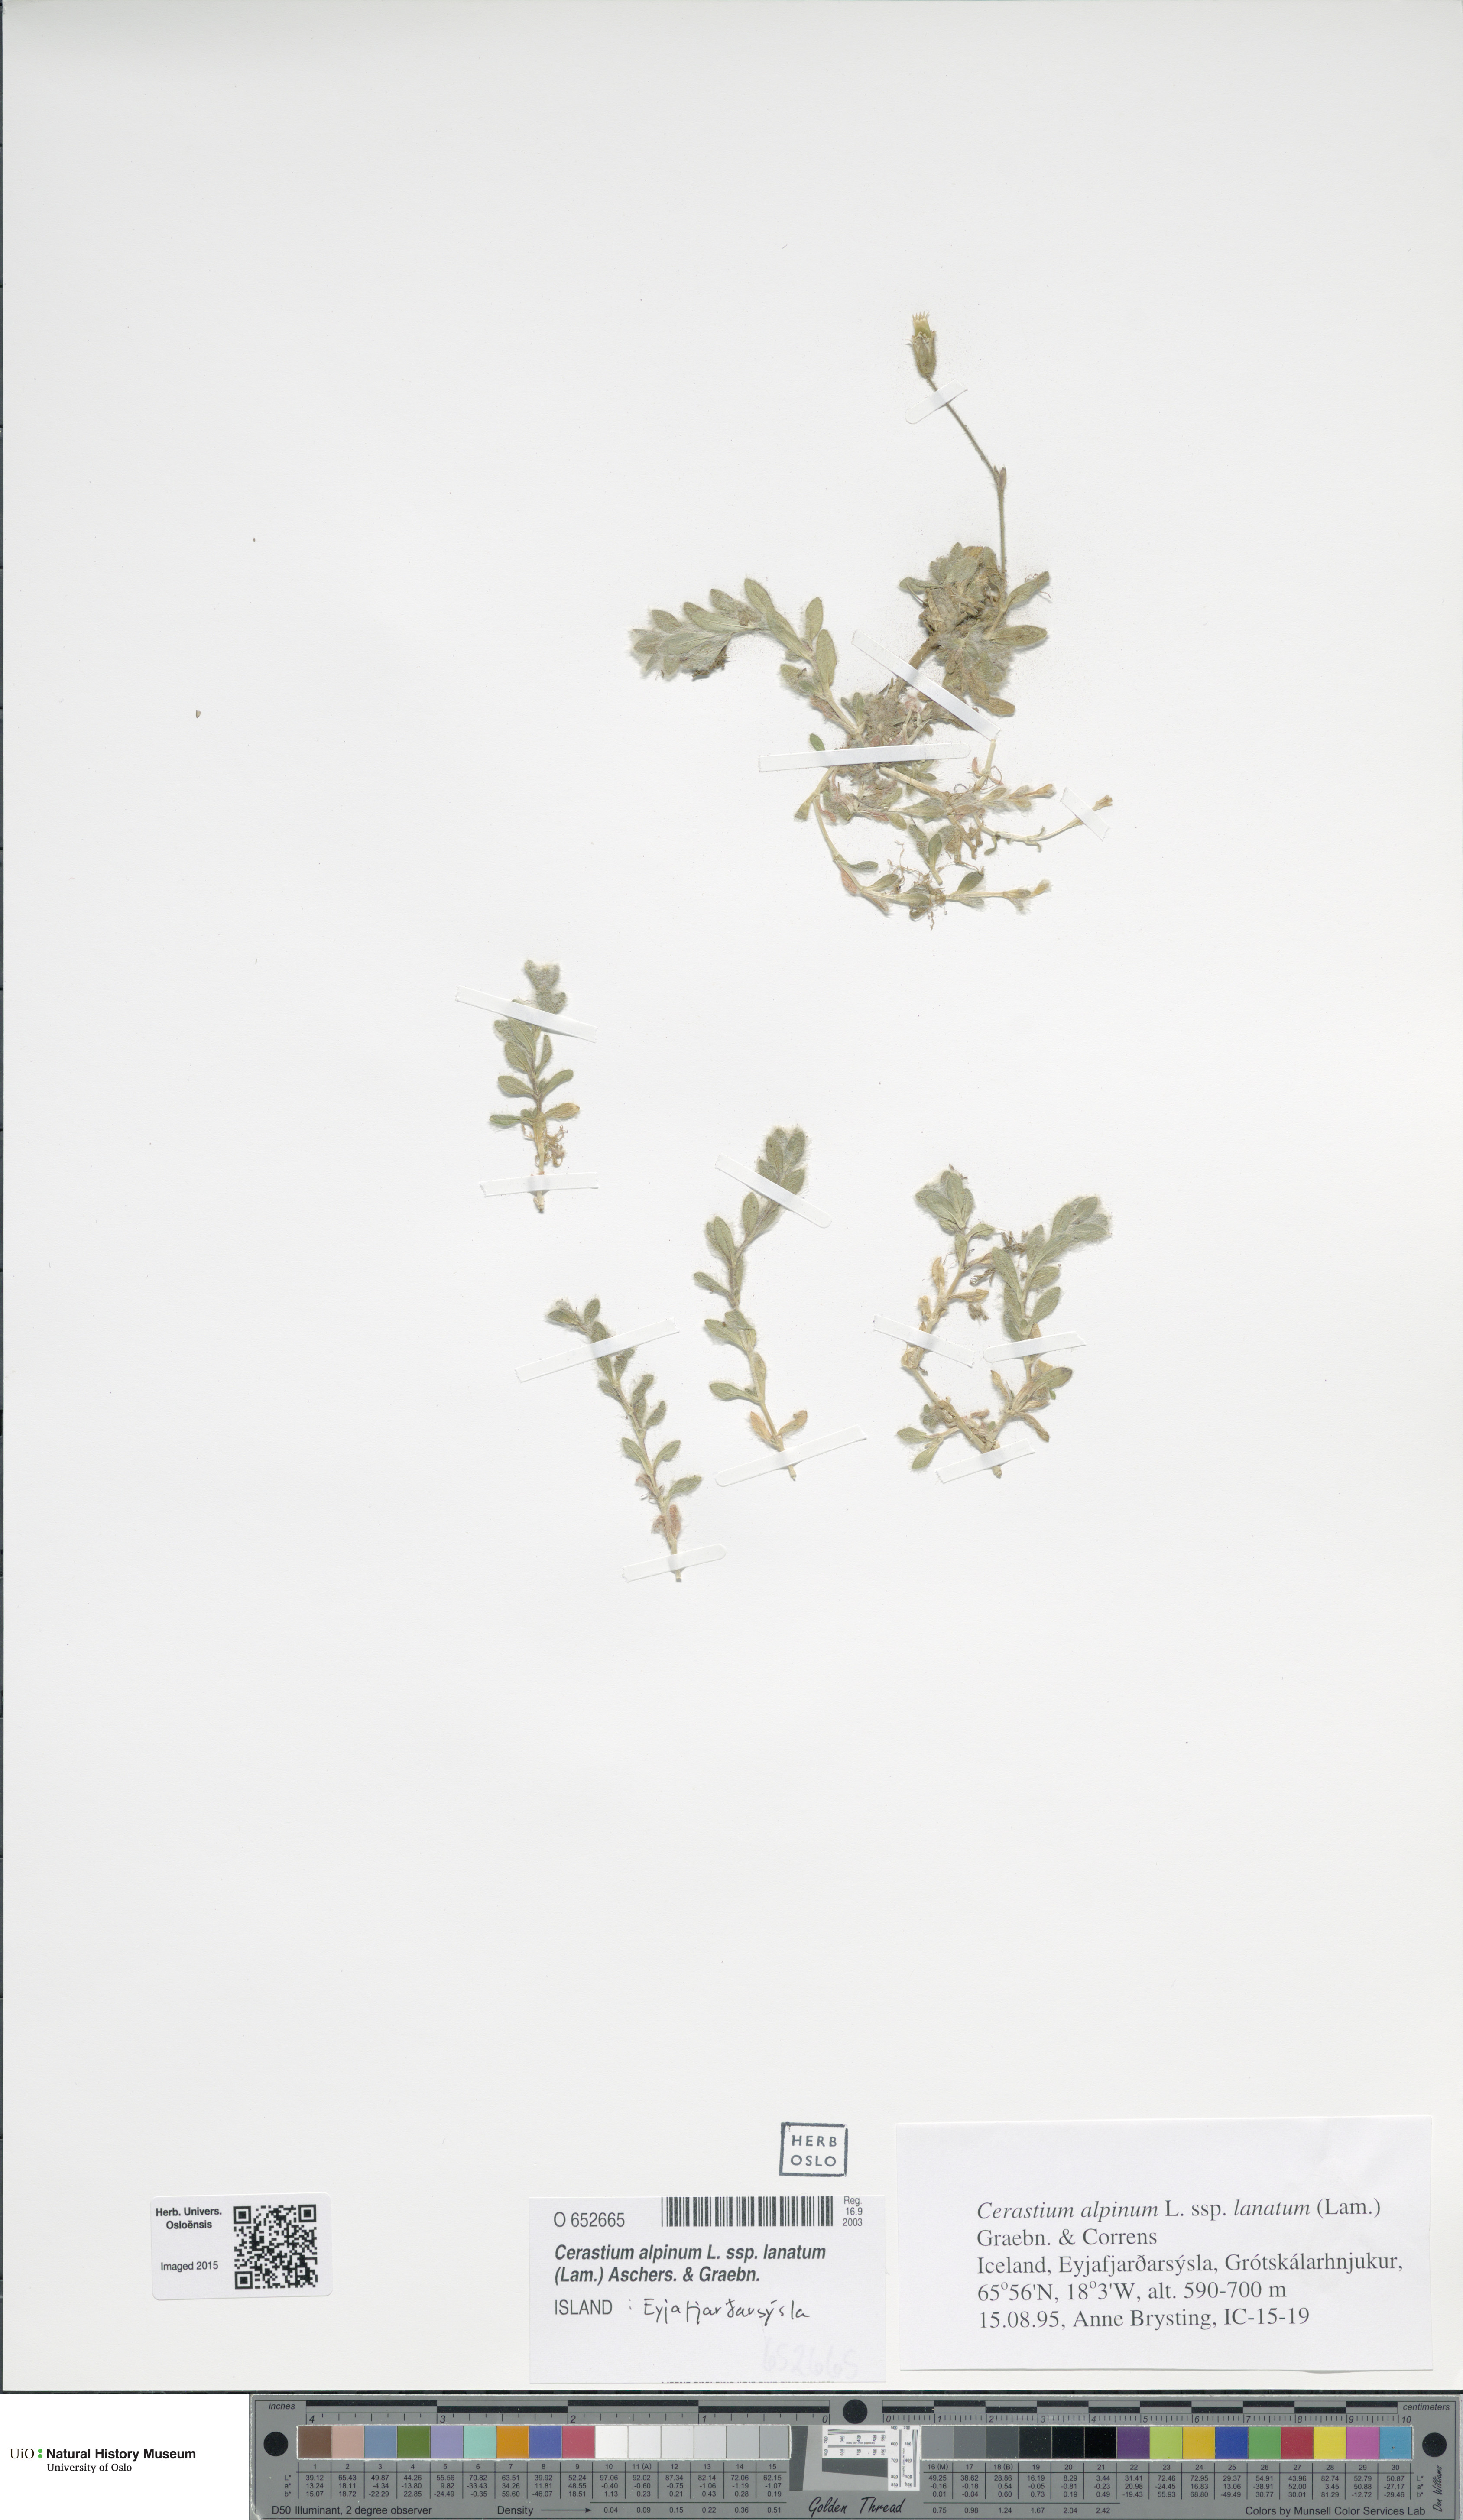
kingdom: Plantae
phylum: Tracheophyta
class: Magnoliopsida
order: Caryophyllales
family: Caryophyllaceae
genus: Cerastium
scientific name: Cerastium alpinum
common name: Alpine mouse-ear
